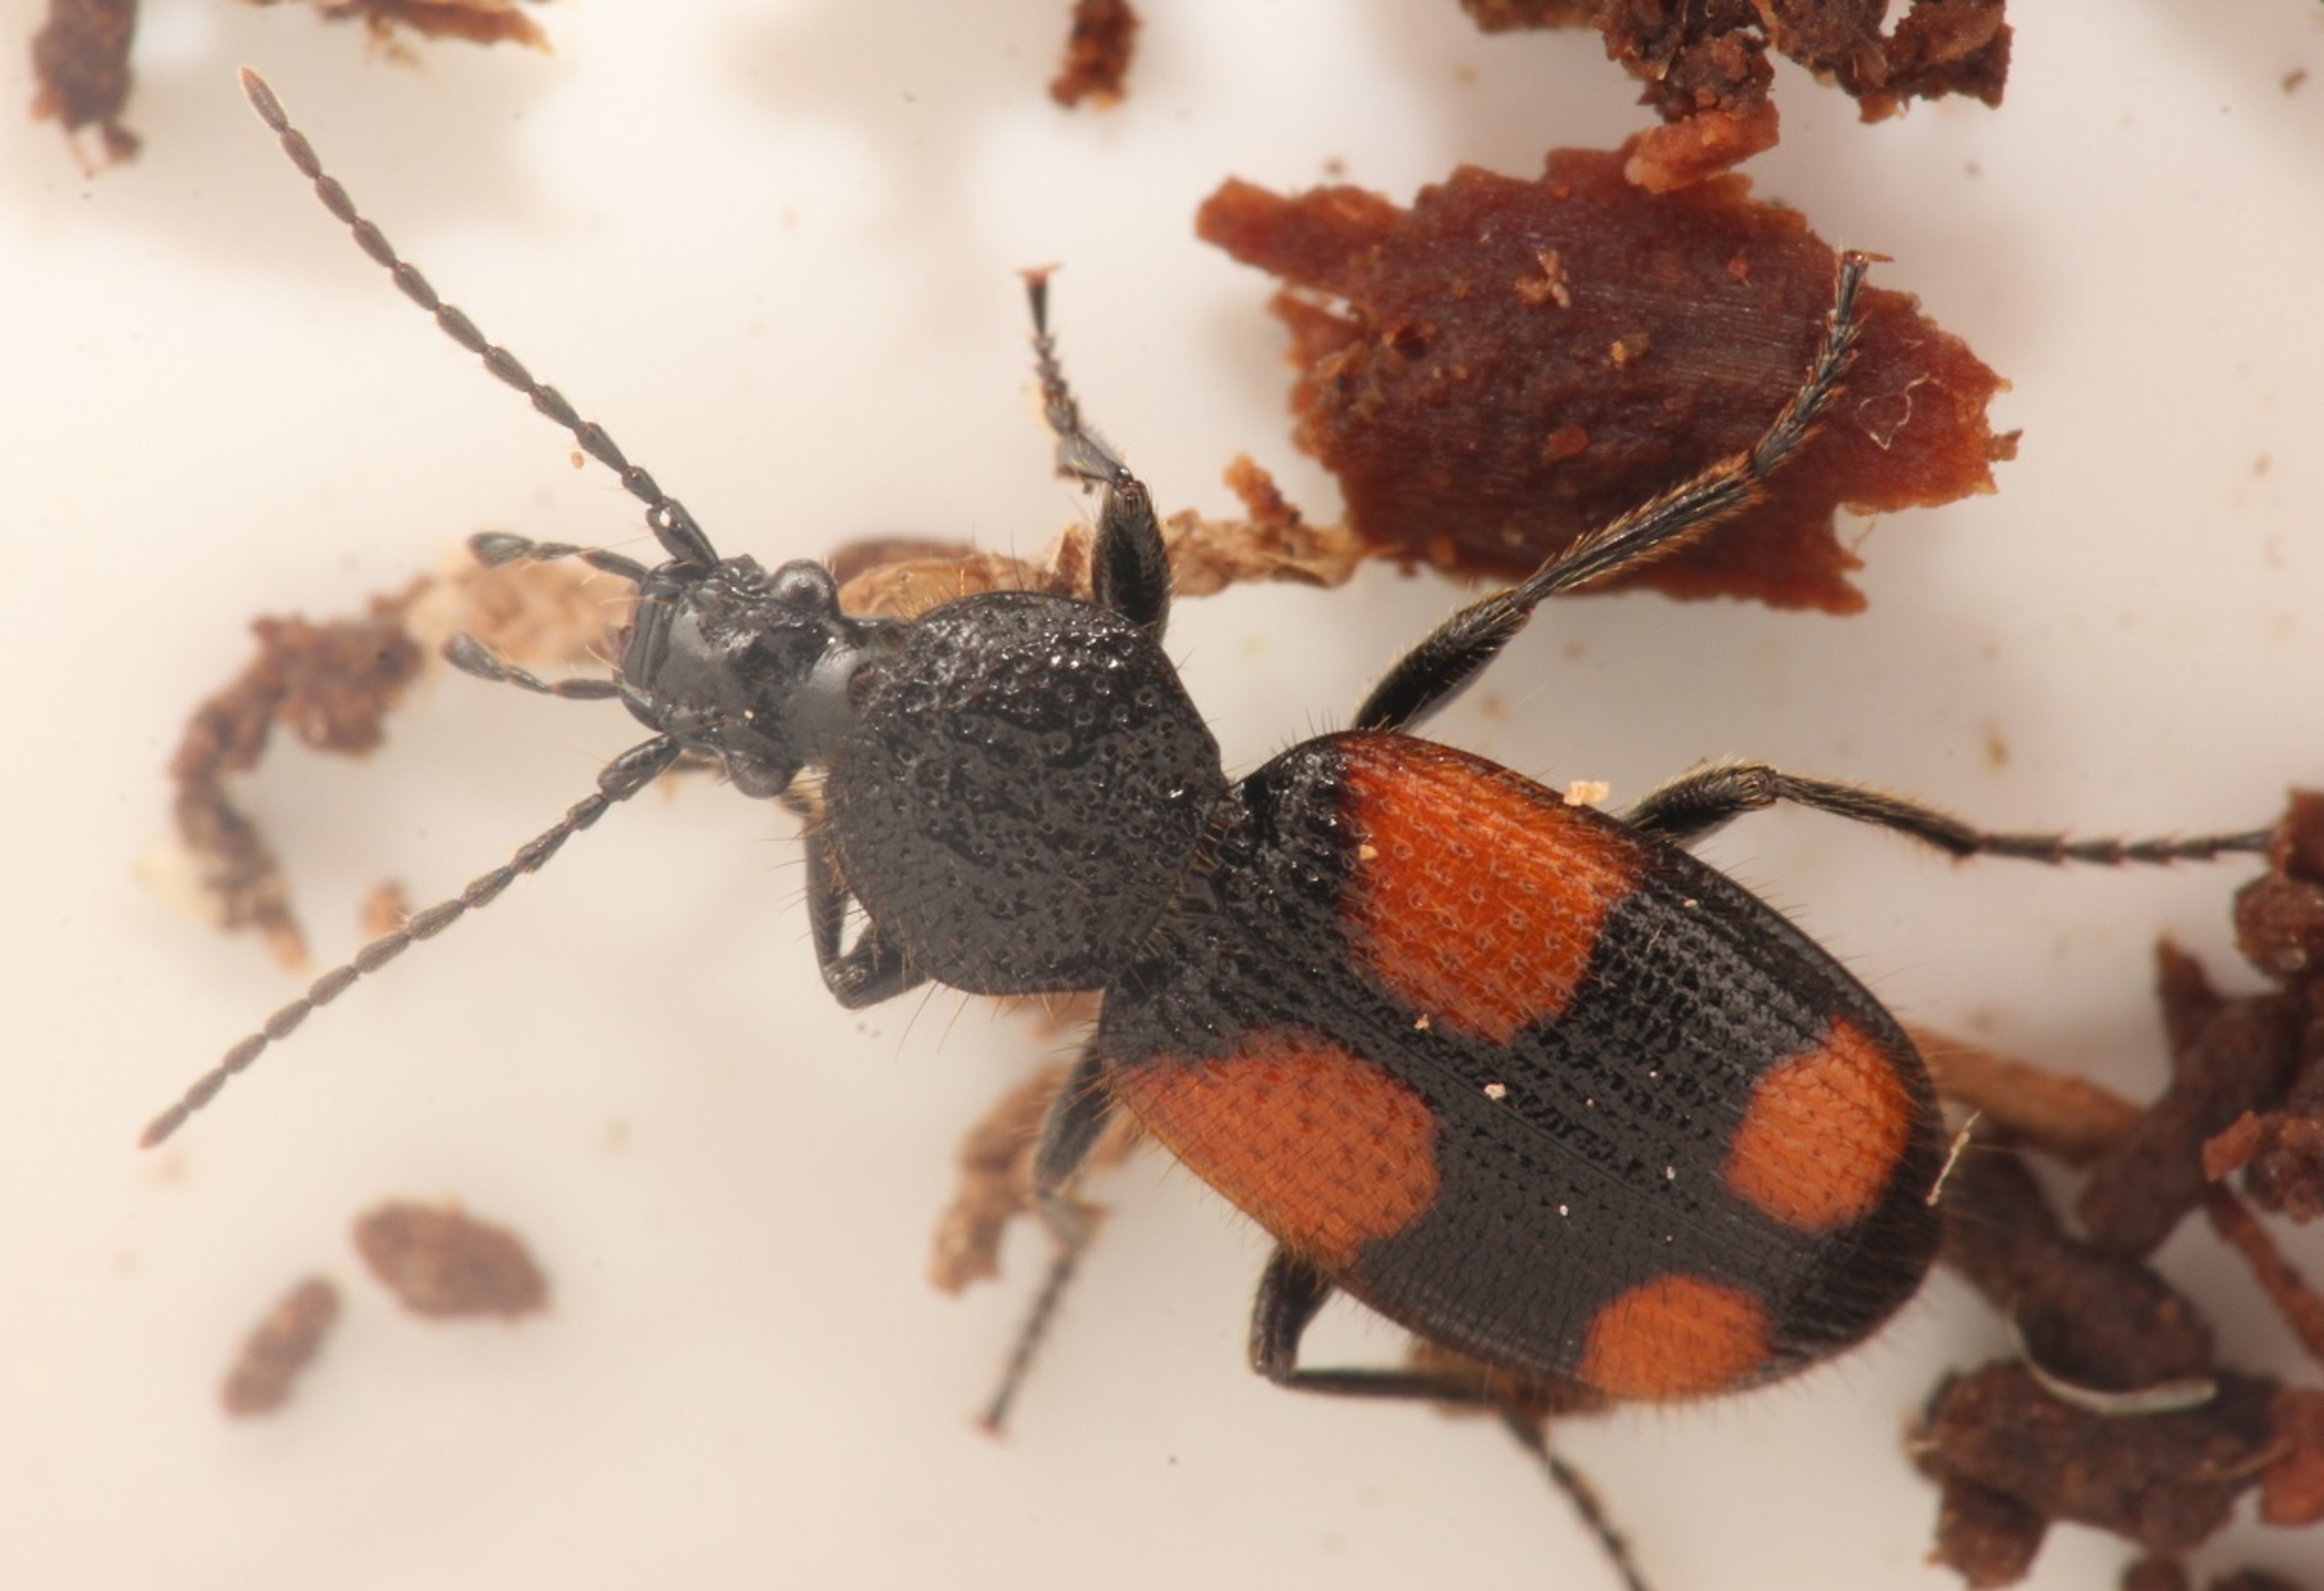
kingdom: Animalia
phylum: Arthropoda
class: Insecta
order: Coleoptera
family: Carabidae
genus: Panagaeus
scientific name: Panagaeus bipustulatus
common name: Lille korsløber
